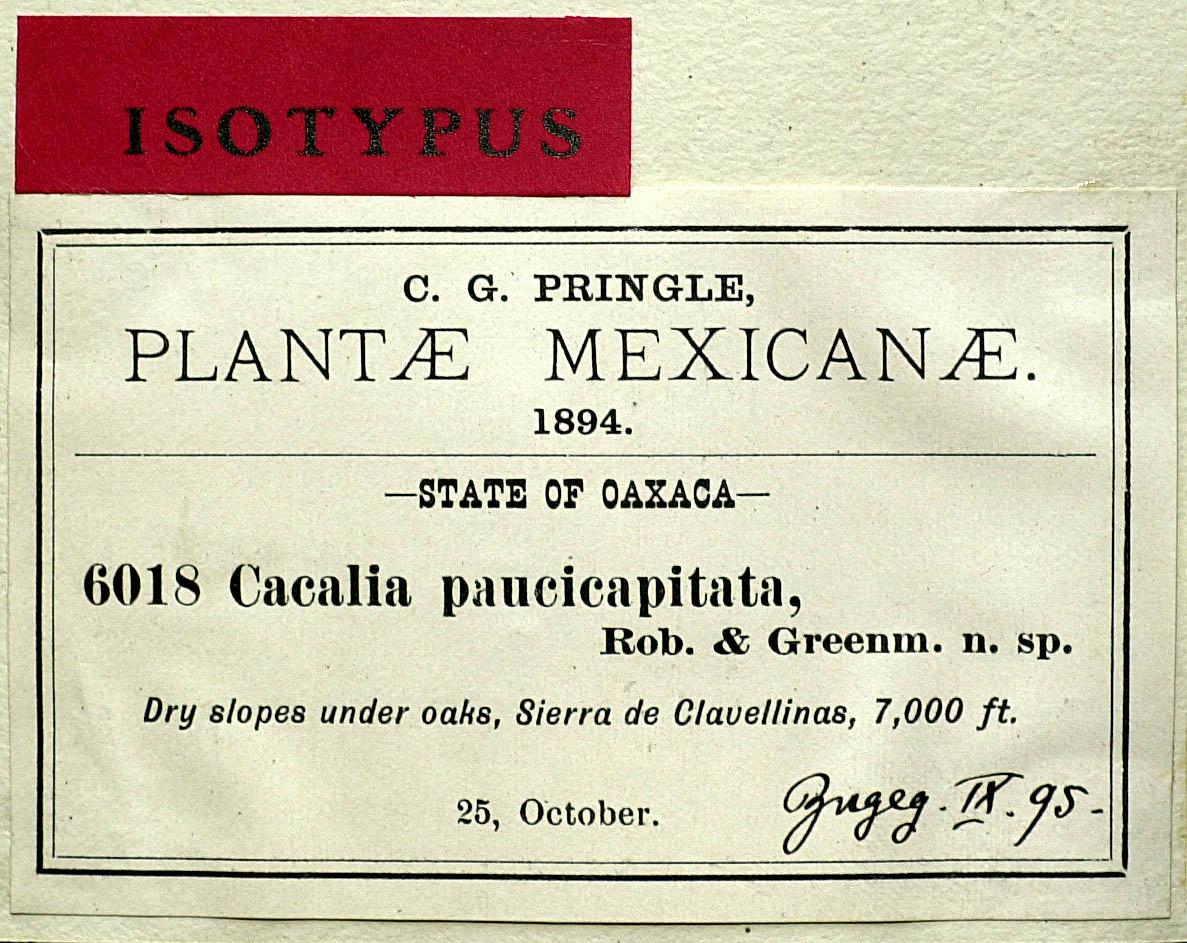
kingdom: Plantae
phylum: Tracheophyta
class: Magnoliopsida
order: Asterales
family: Asteraceae
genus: Psacalium
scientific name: Psacalium paucicapitatum
